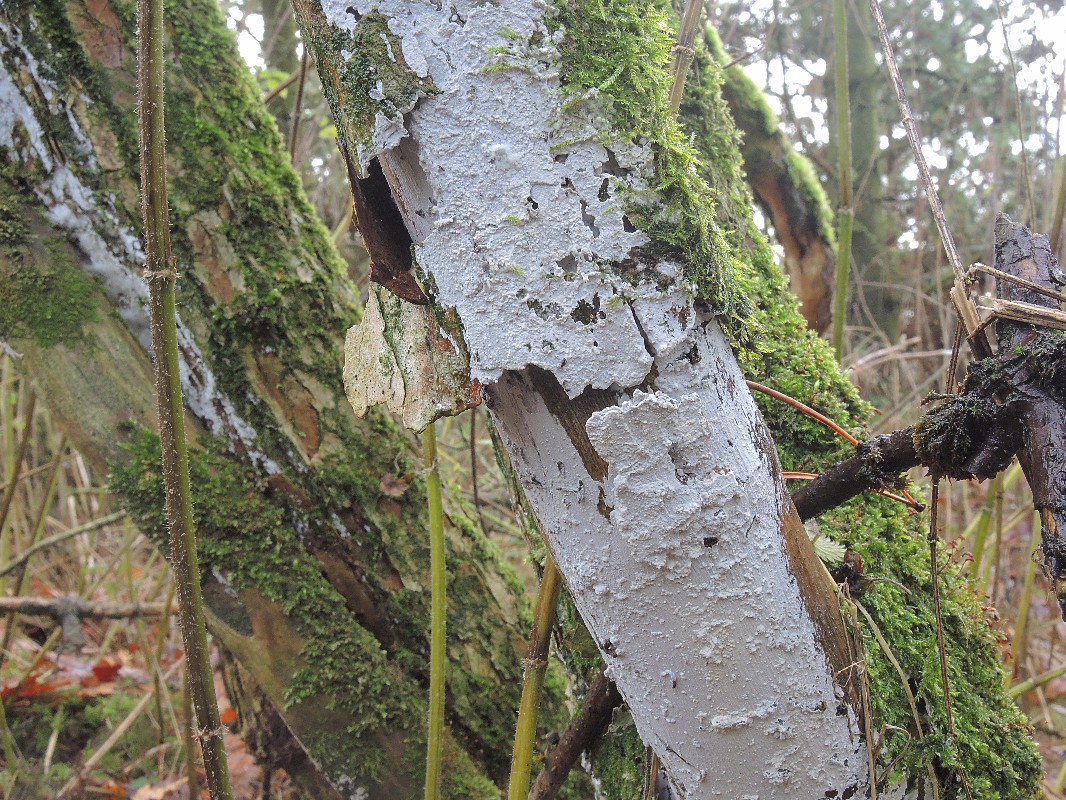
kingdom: Fungi
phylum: Basidiomycota
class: Agaricomycetes
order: Corticiales
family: Corticiaceae
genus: Lyomyces
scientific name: Lyomyces sambuci
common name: almindelig hyldehinde
